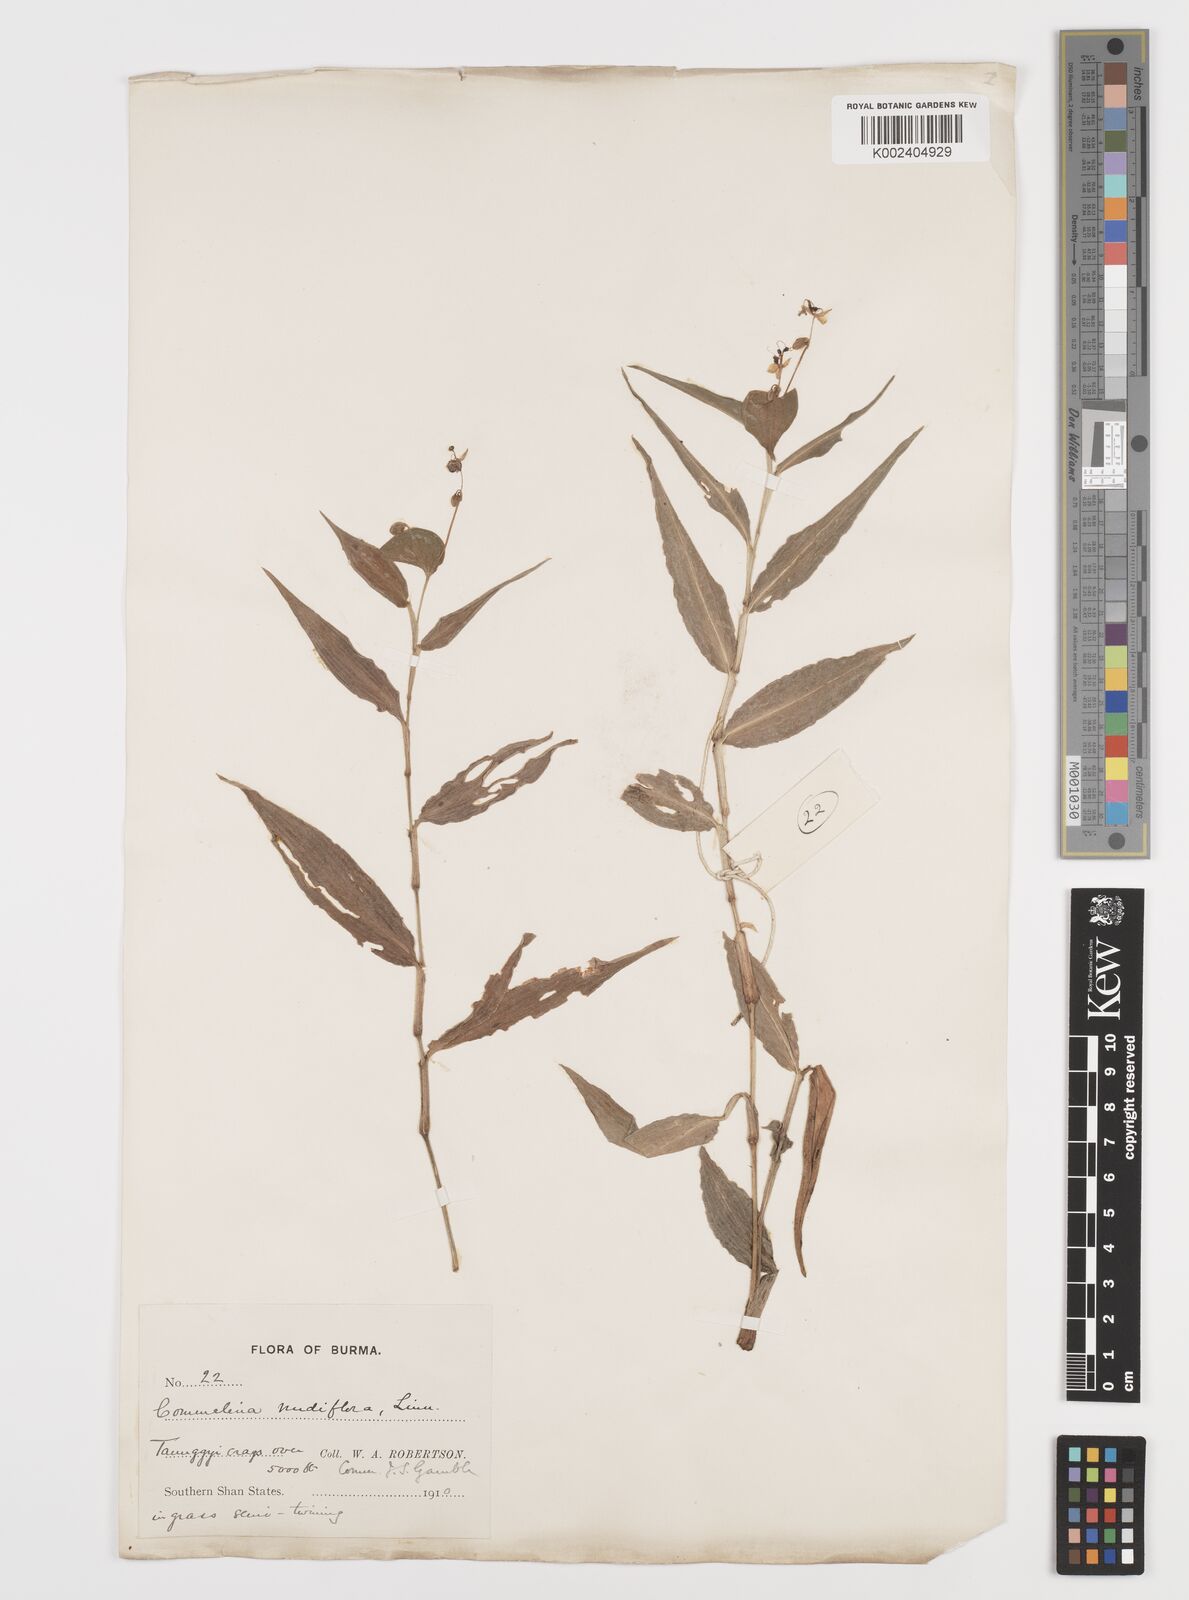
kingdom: Plantae
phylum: Tracheophyta
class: Liliopsida
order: Commelinales
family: Commelinaceae
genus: Murdannia
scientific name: Murdannia nudiflora
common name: Nakedstem dewflower
